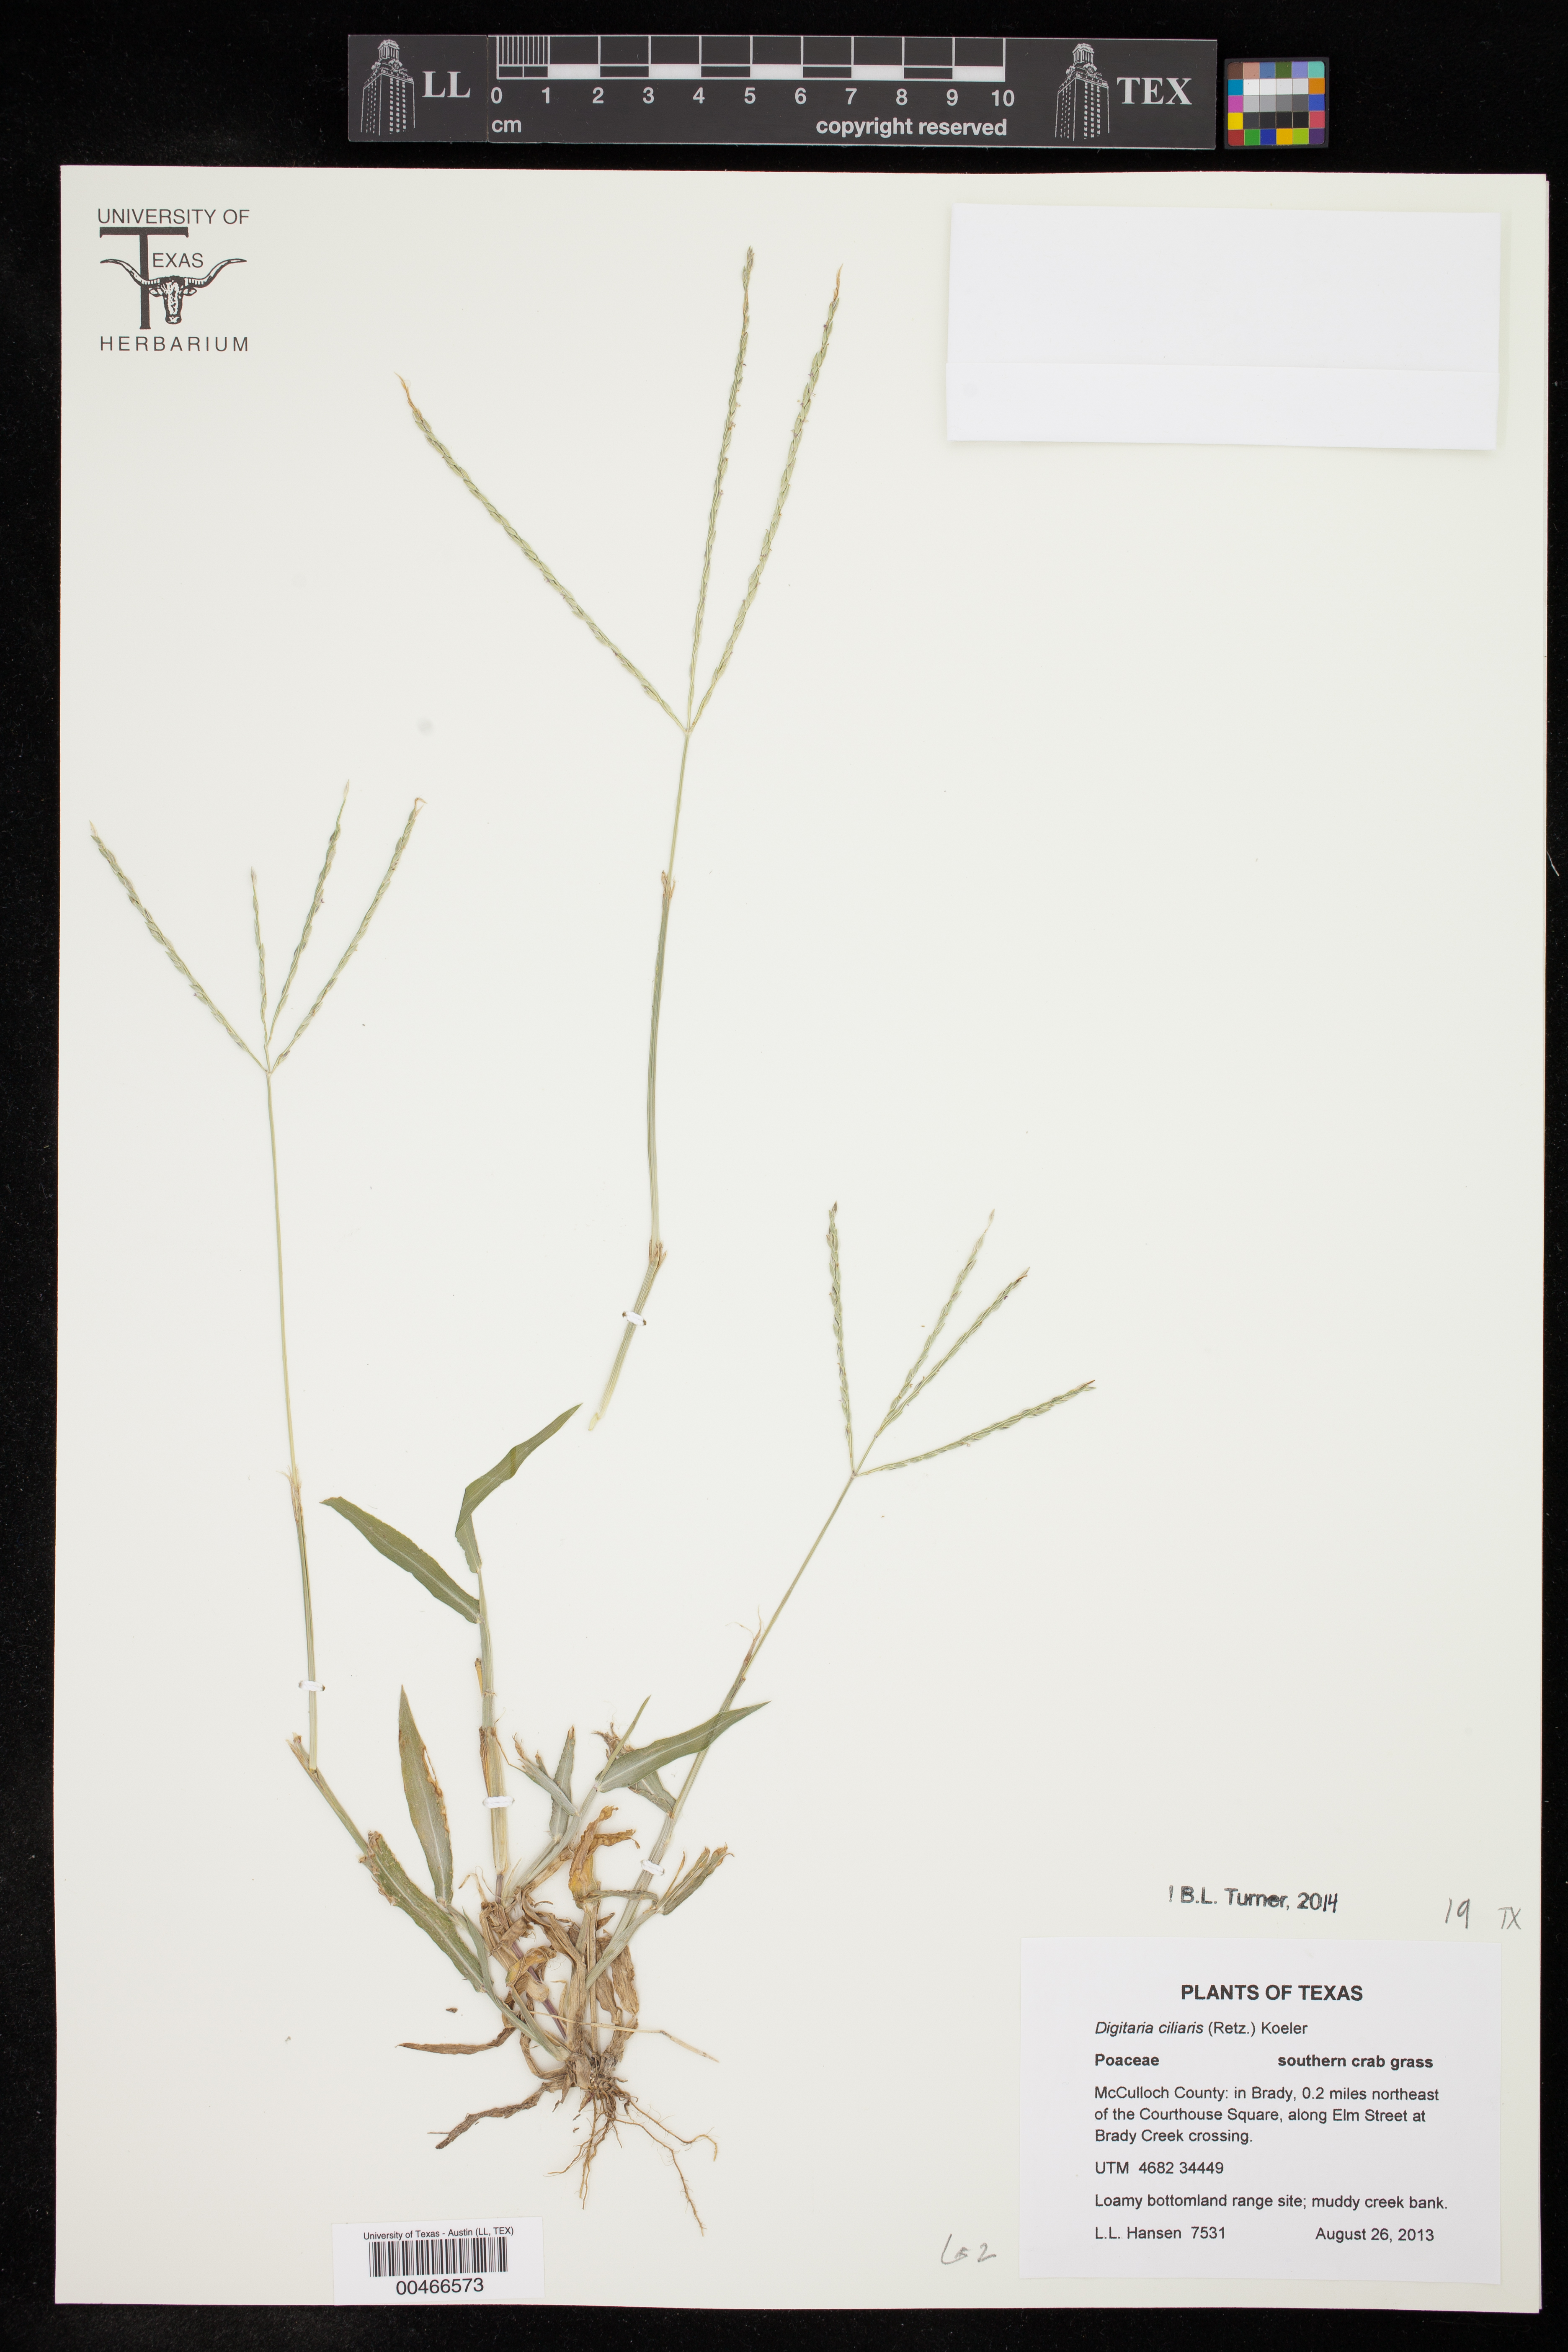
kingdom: Plantae
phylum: Tracheophyta
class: Liliopsida
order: Poales
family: Poaceae
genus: Digitaria
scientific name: Digitaria ciliaris
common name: Tropical finger-grass
